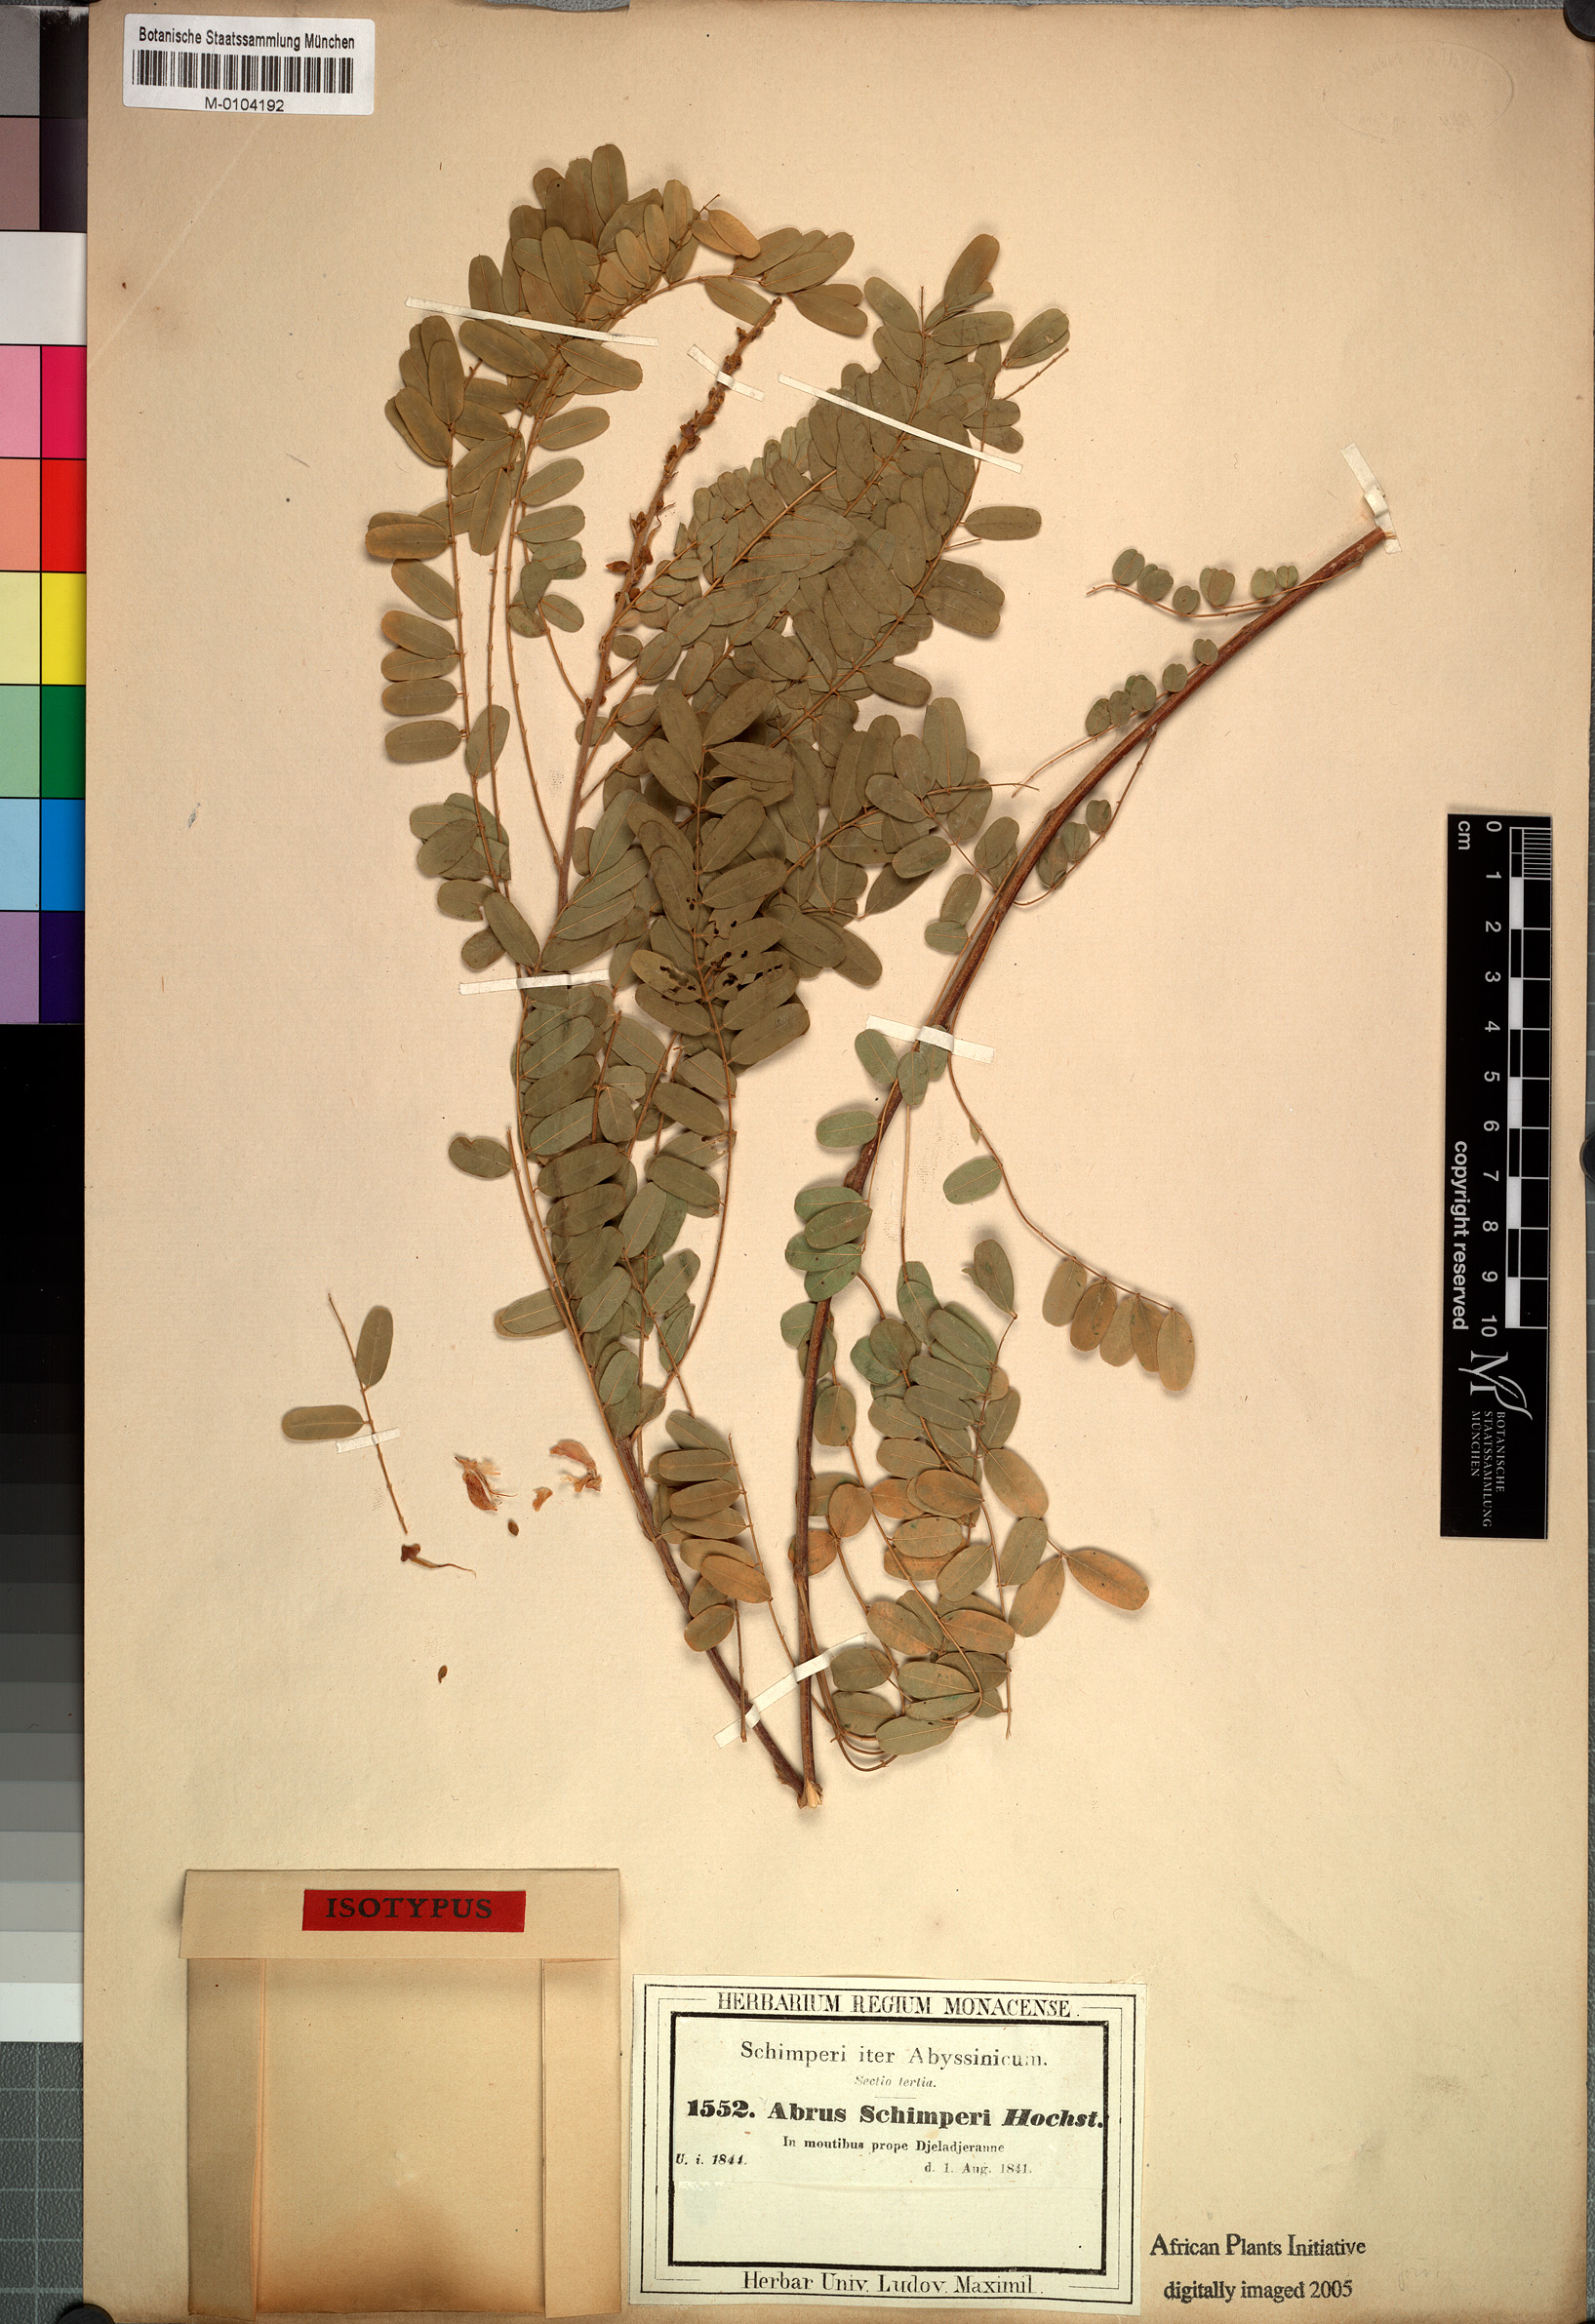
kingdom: Plantae
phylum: Tracheophyta
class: Magnoliopsida
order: Fabales
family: Fabaceae
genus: Abrus
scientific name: Abrus schimperi
